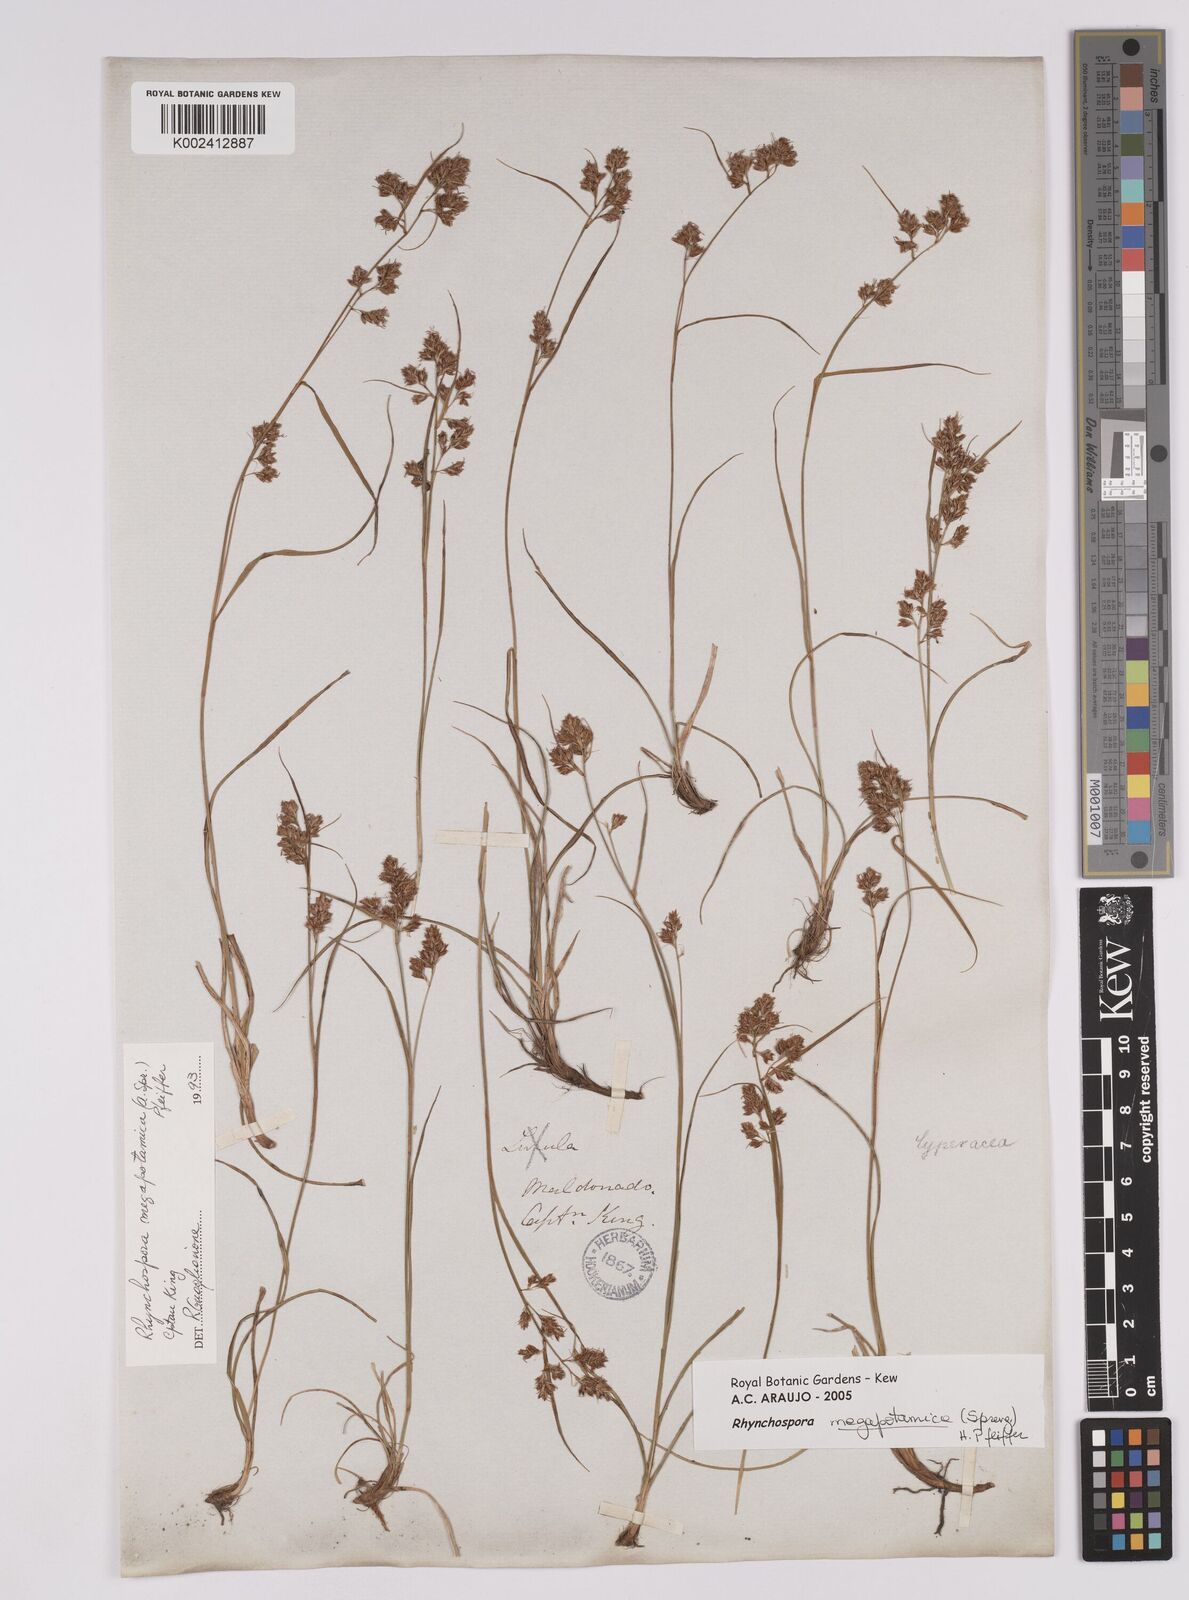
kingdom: Plantae
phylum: Tracheophyta
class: Liliopsida
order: Poales
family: Cyperaceae
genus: Rhynchospora
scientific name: Rhynchospora megapotamica
